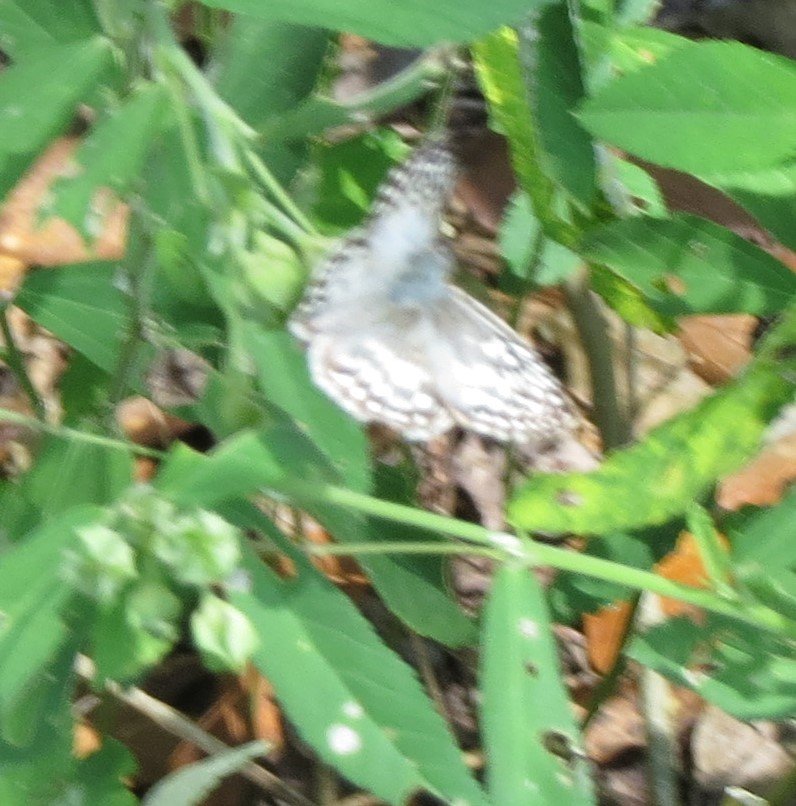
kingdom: Animalia
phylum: Arthropoda
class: Insecta
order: Lepidoptera
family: Hesperiidae
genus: Pyrgus
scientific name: Pyrgus oileus
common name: Tropical Checkered-Skipper
